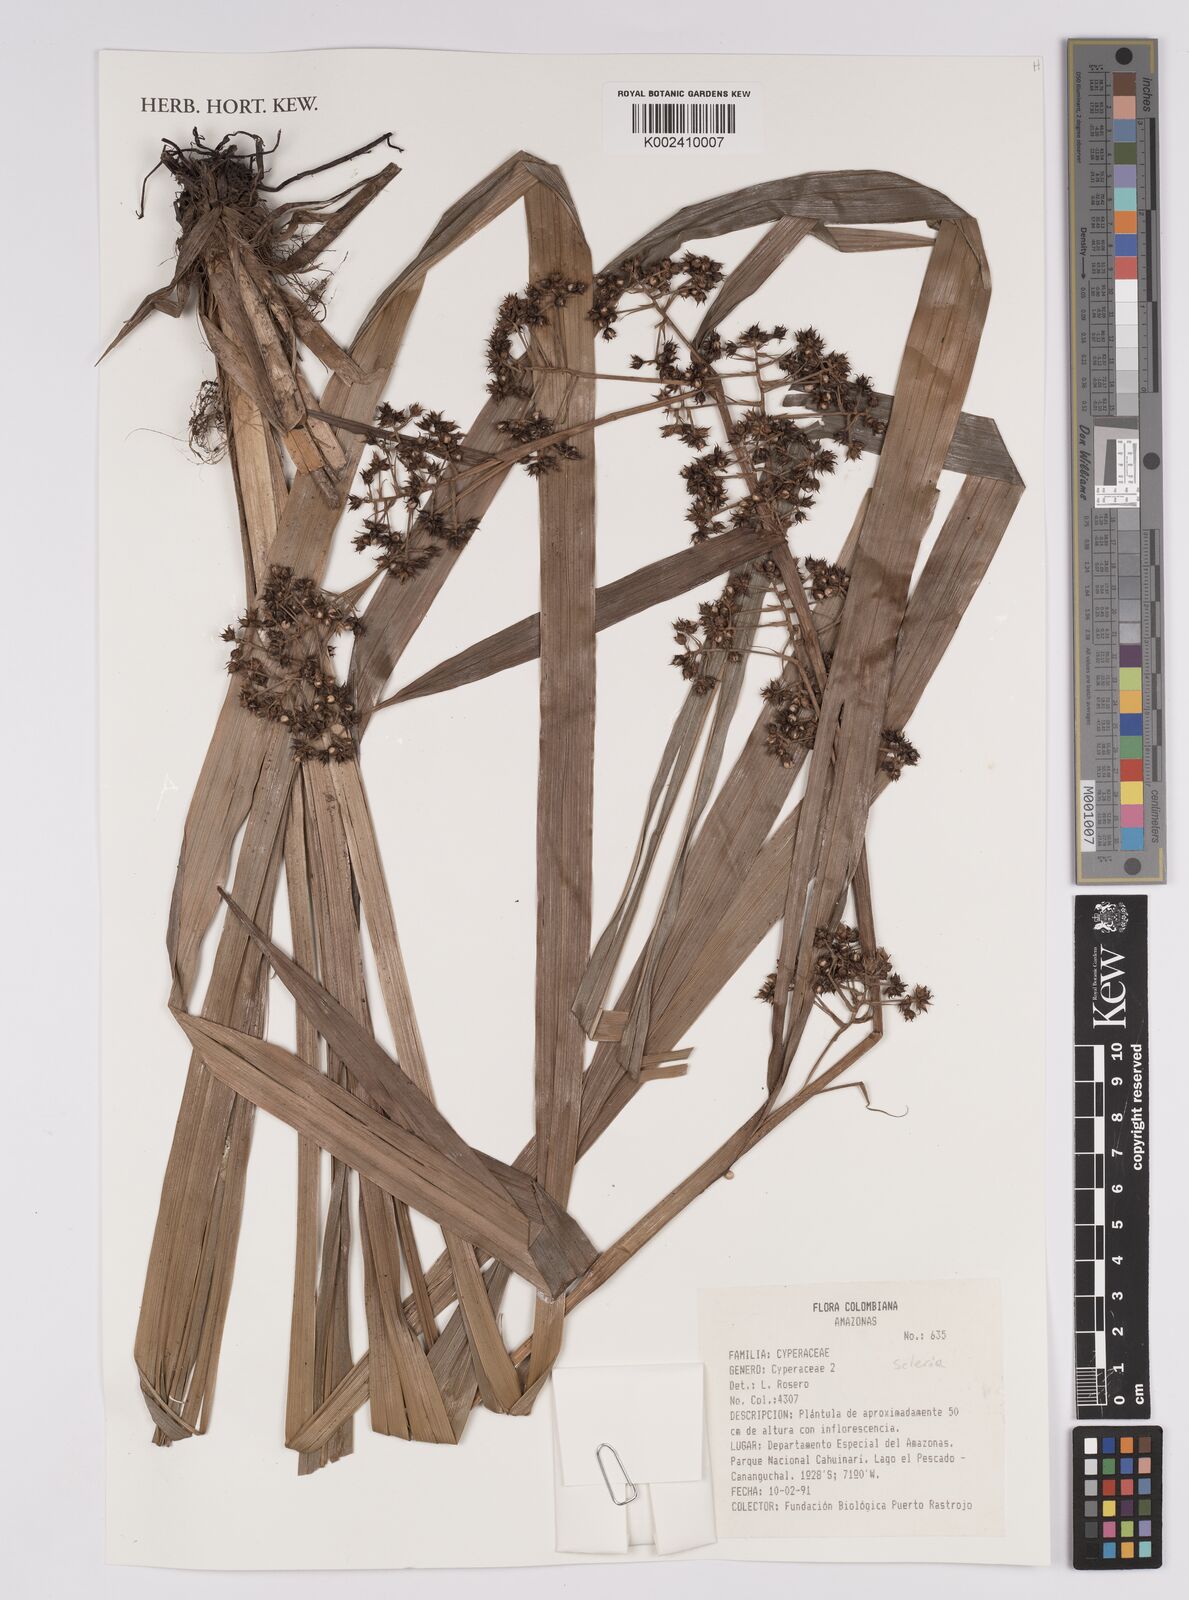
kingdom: Plantae
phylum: Tracheophyta
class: Liliopsida
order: Poales
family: Cyperaceae
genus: Scleria
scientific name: Scleria
